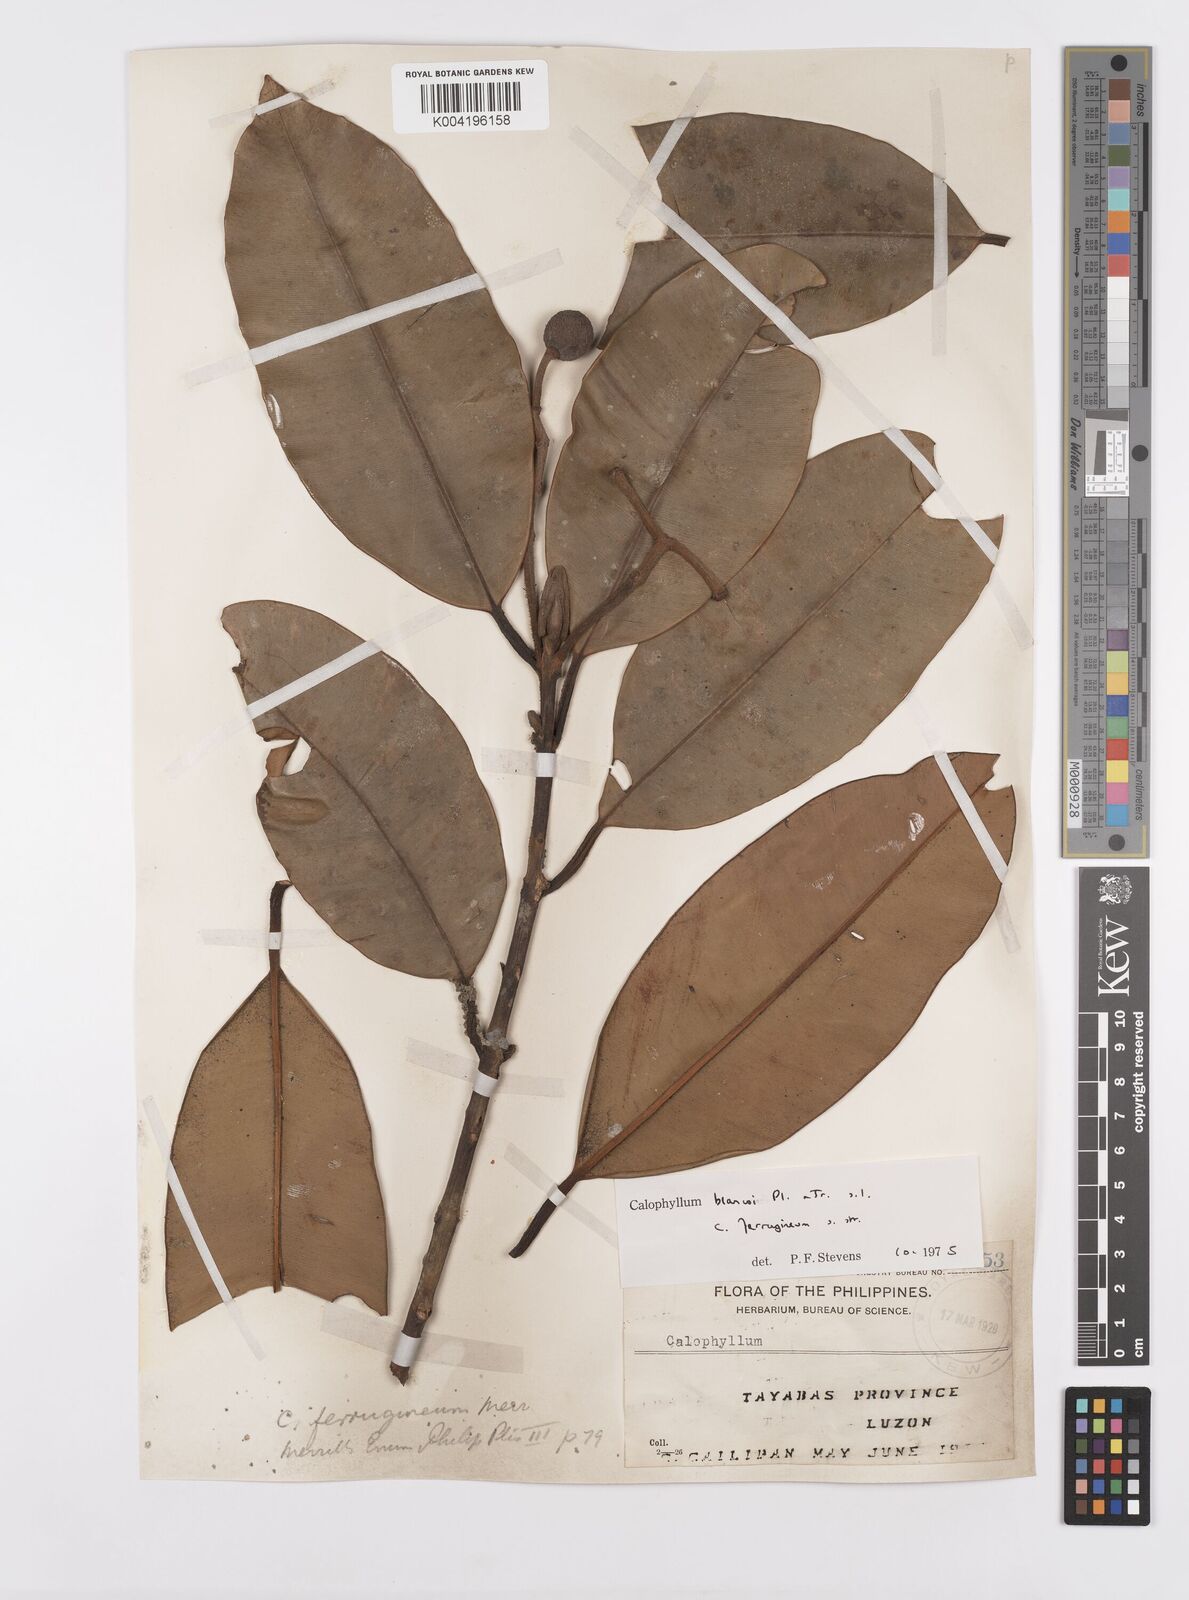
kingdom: Plantae
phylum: Tracheophyta
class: Magnoliopsida
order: Malpighiales
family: Calophyllaceae
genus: Calophyllum
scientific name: Calophyllum blancoi
